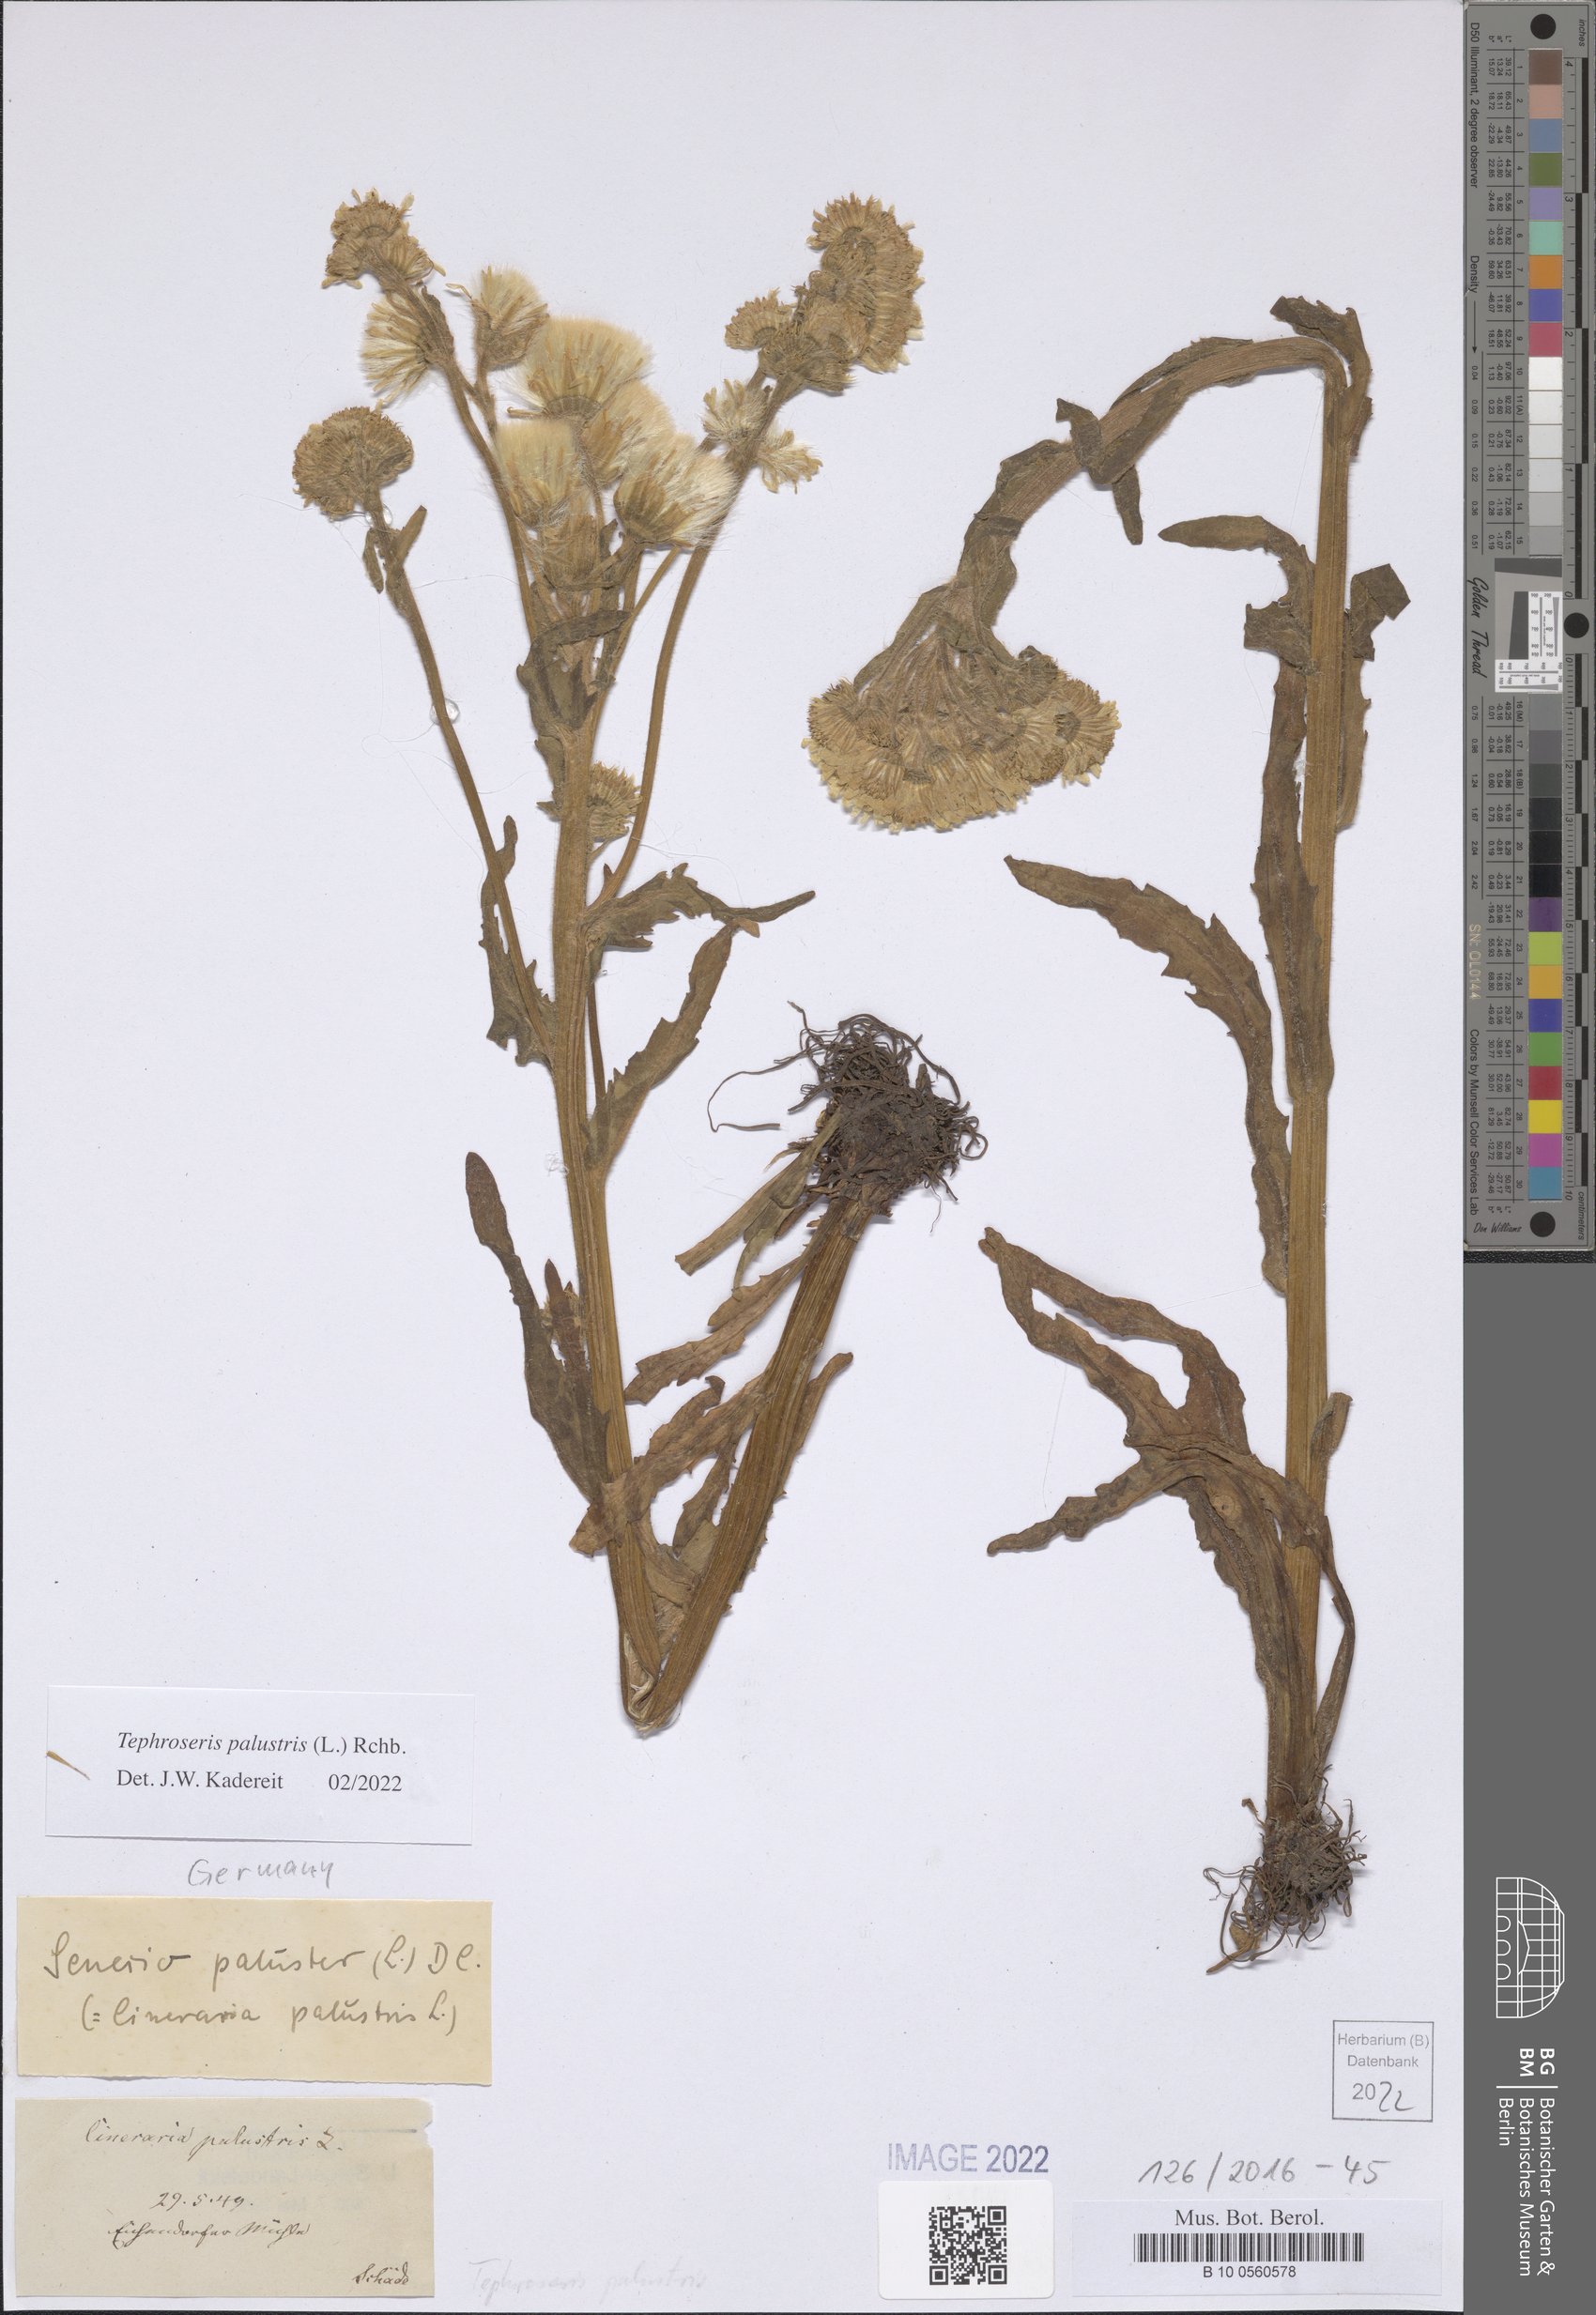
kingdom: Plantae
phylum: Tracheophyta
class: Magnoliopsida
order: Asterales
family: Asteraceae
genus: Tephroseris
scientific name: Tephroseris palustris
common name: Marsh fleawort
